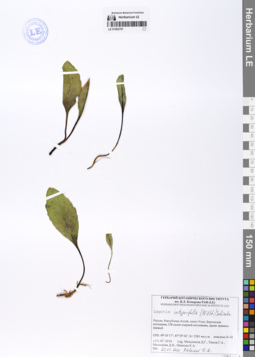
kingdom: Plantae
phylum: Tracheophyta
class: Magnoliopsida
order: Lamiales
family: Plantaginaceae
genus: Lagotis
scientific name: Lagotis integrifolia
